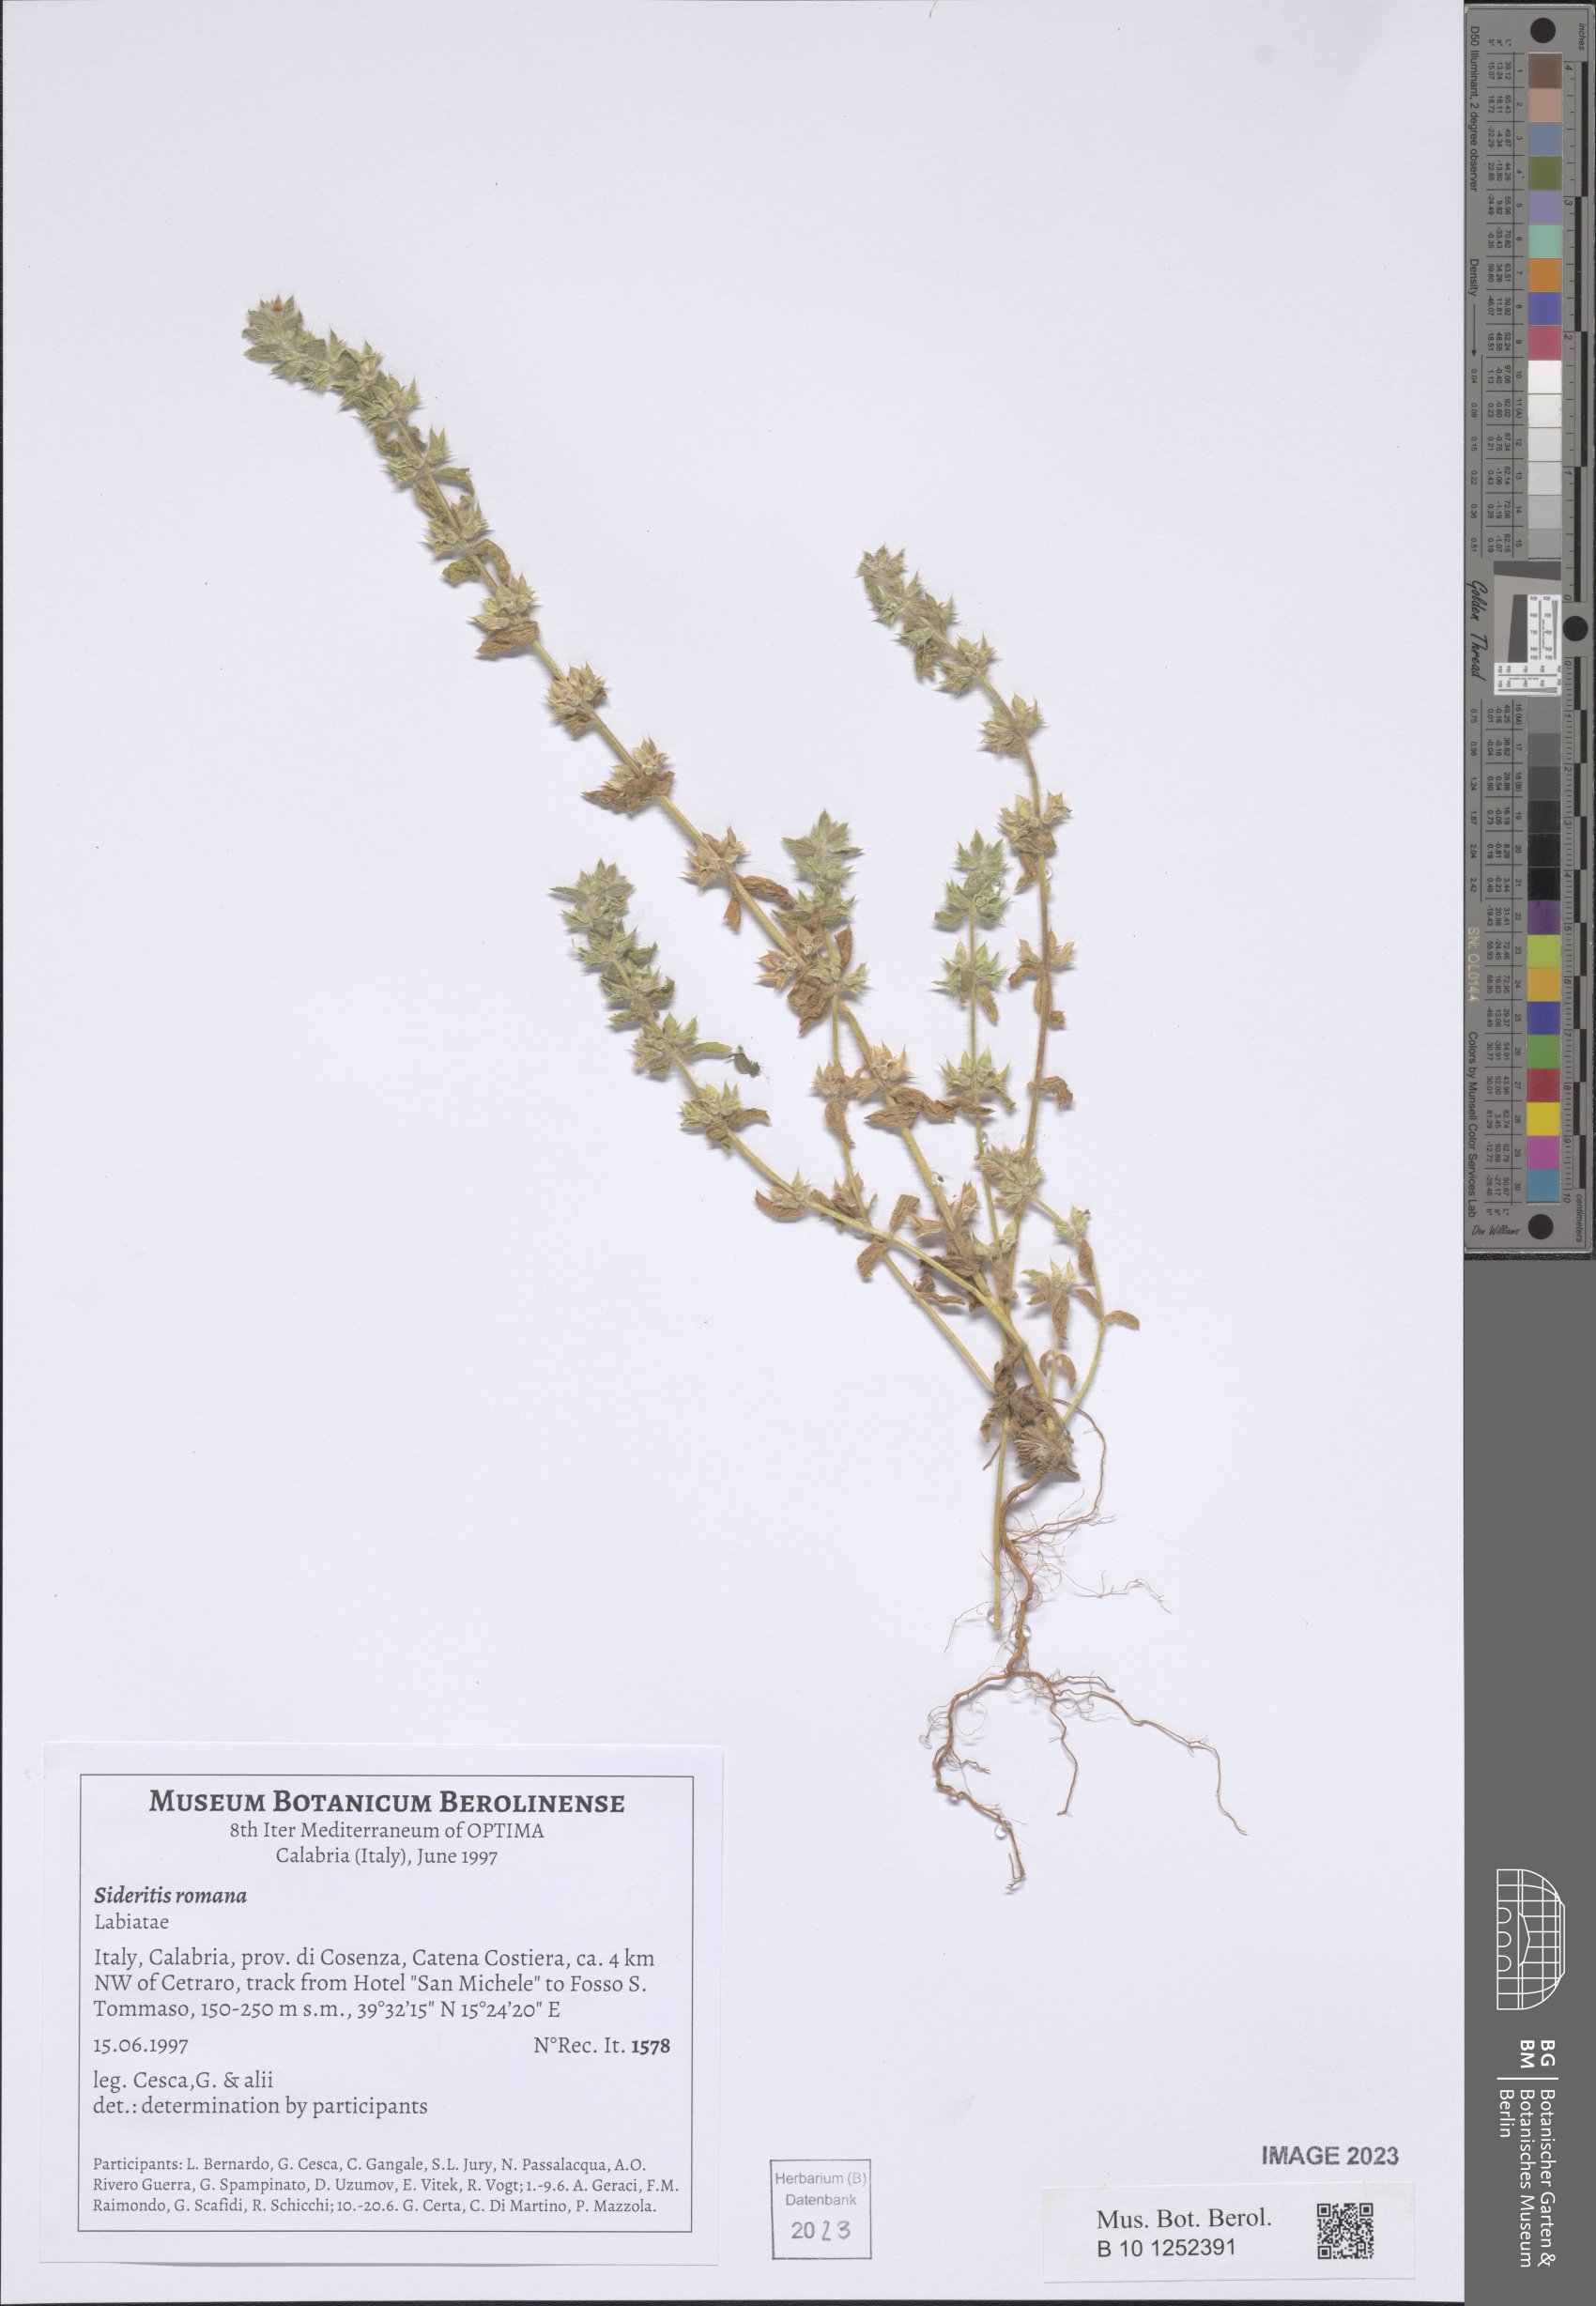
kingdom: Plantae
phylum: Tracheophyta
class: Magnoliopsida
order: Lamiales
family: Lamiaceae
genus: Sideritis
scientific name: Sideritis romana
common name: Simplebeak ironwort
